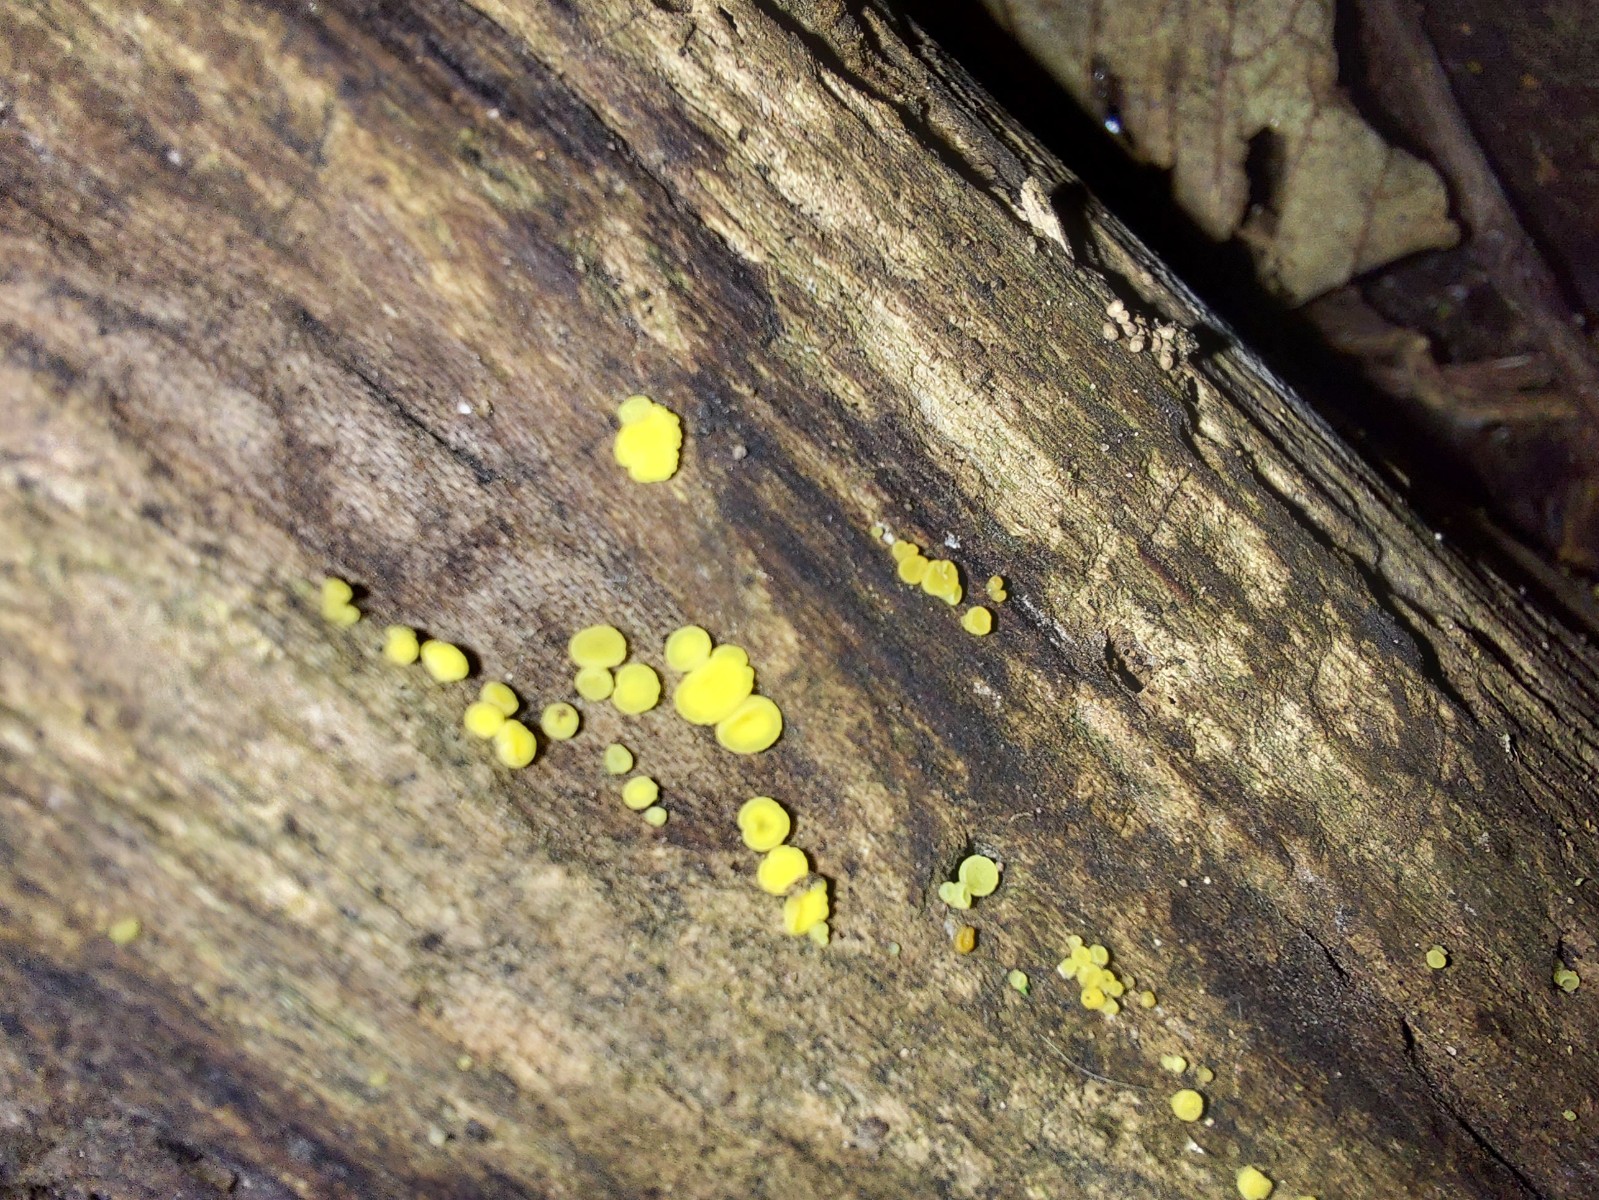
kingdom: Fungi
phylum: Ascomycota
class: Leotiomycetes
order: Helotiales
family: Pezizellaceae
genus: Calycina
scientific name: Calycina citrina
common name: almindelig gulskive
